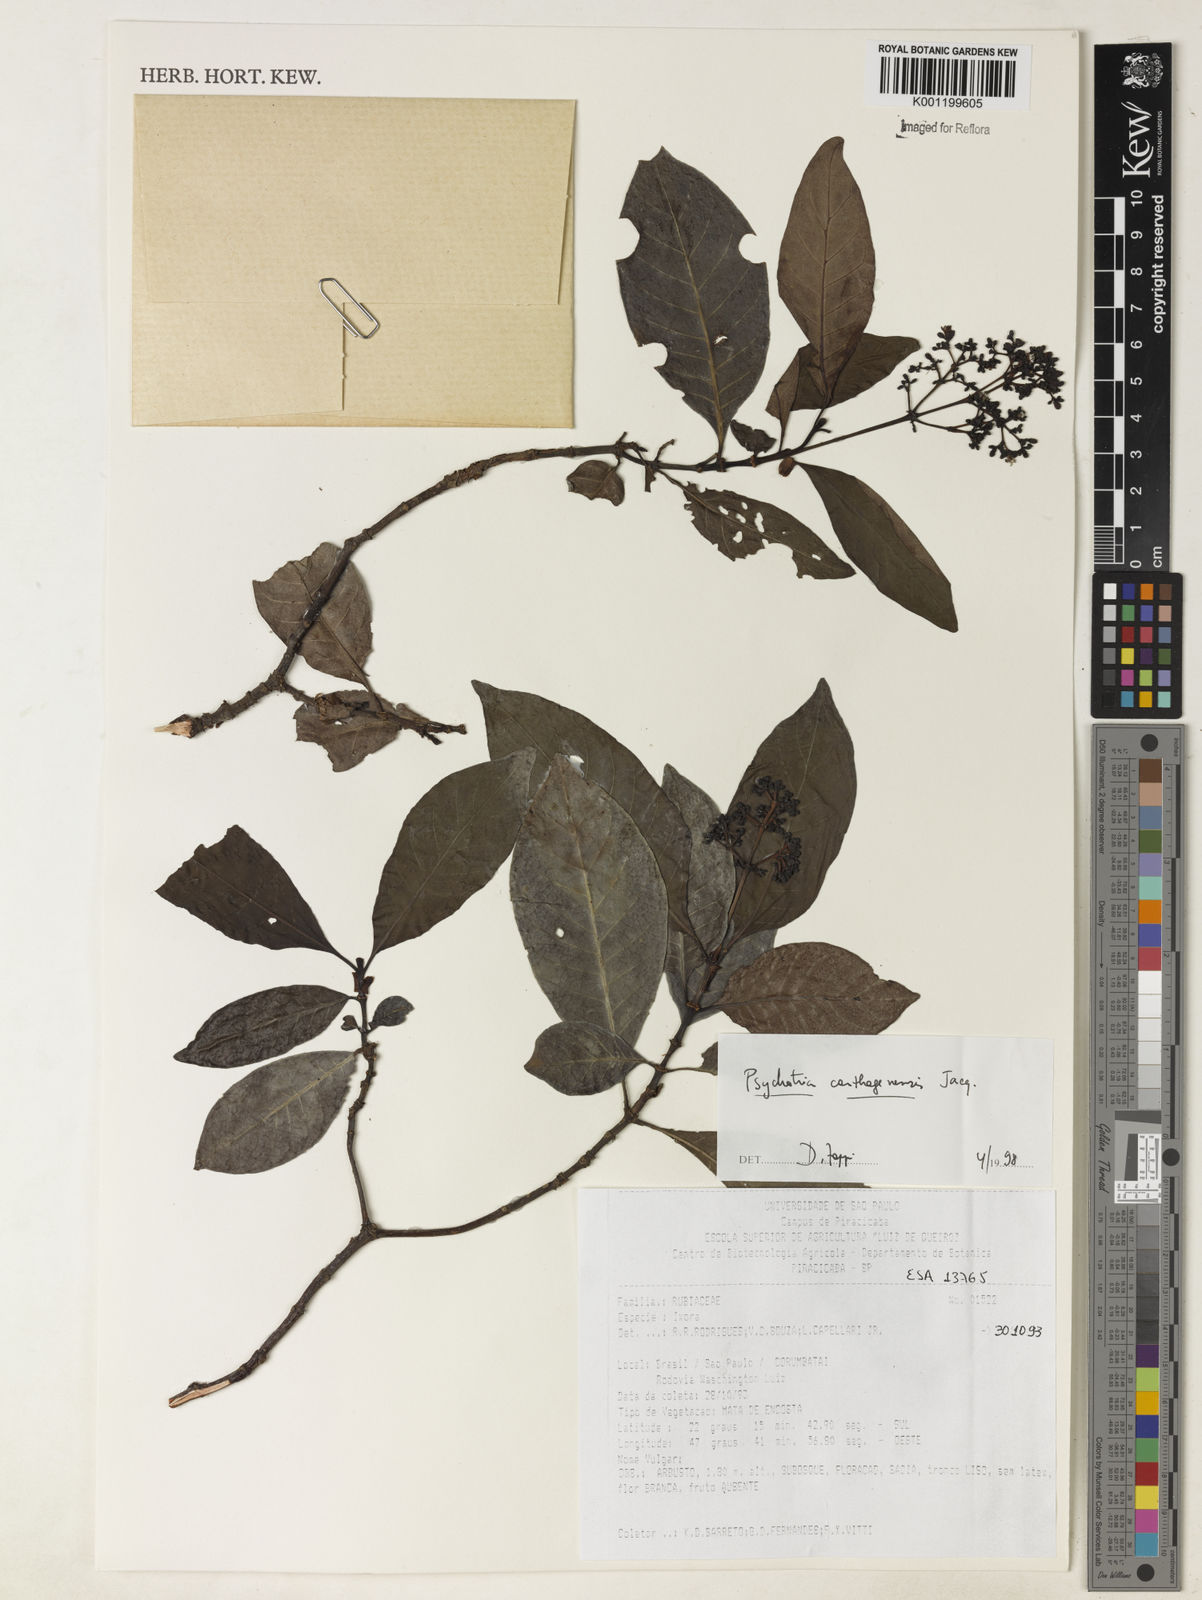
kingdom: Plantae
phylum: Tracheophyta
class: Magnoliopsida
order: Gentianales
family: Rubiaceae
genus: Psychotria
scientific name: Psychotria carthagenensis
